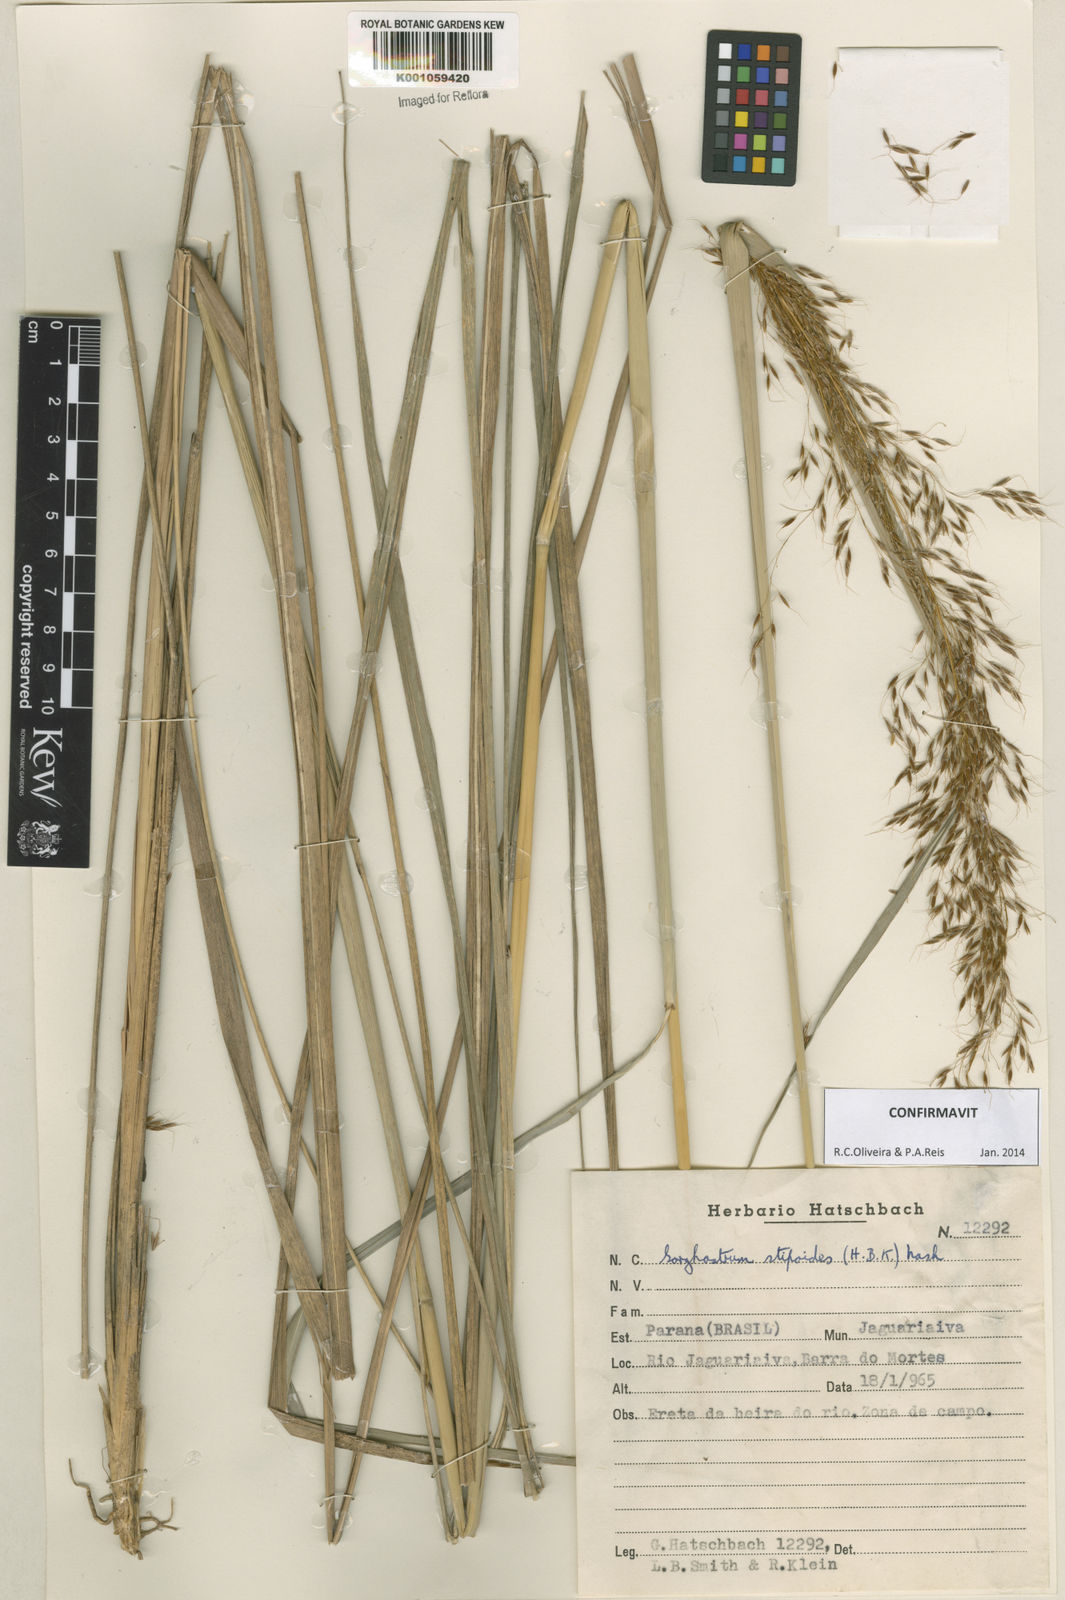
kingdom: Plantae
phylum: Tracheophyta
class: Liliopsida
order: Poales
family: Poaceae
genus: Sorghastrum
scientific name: Sorghastrum stipoides
